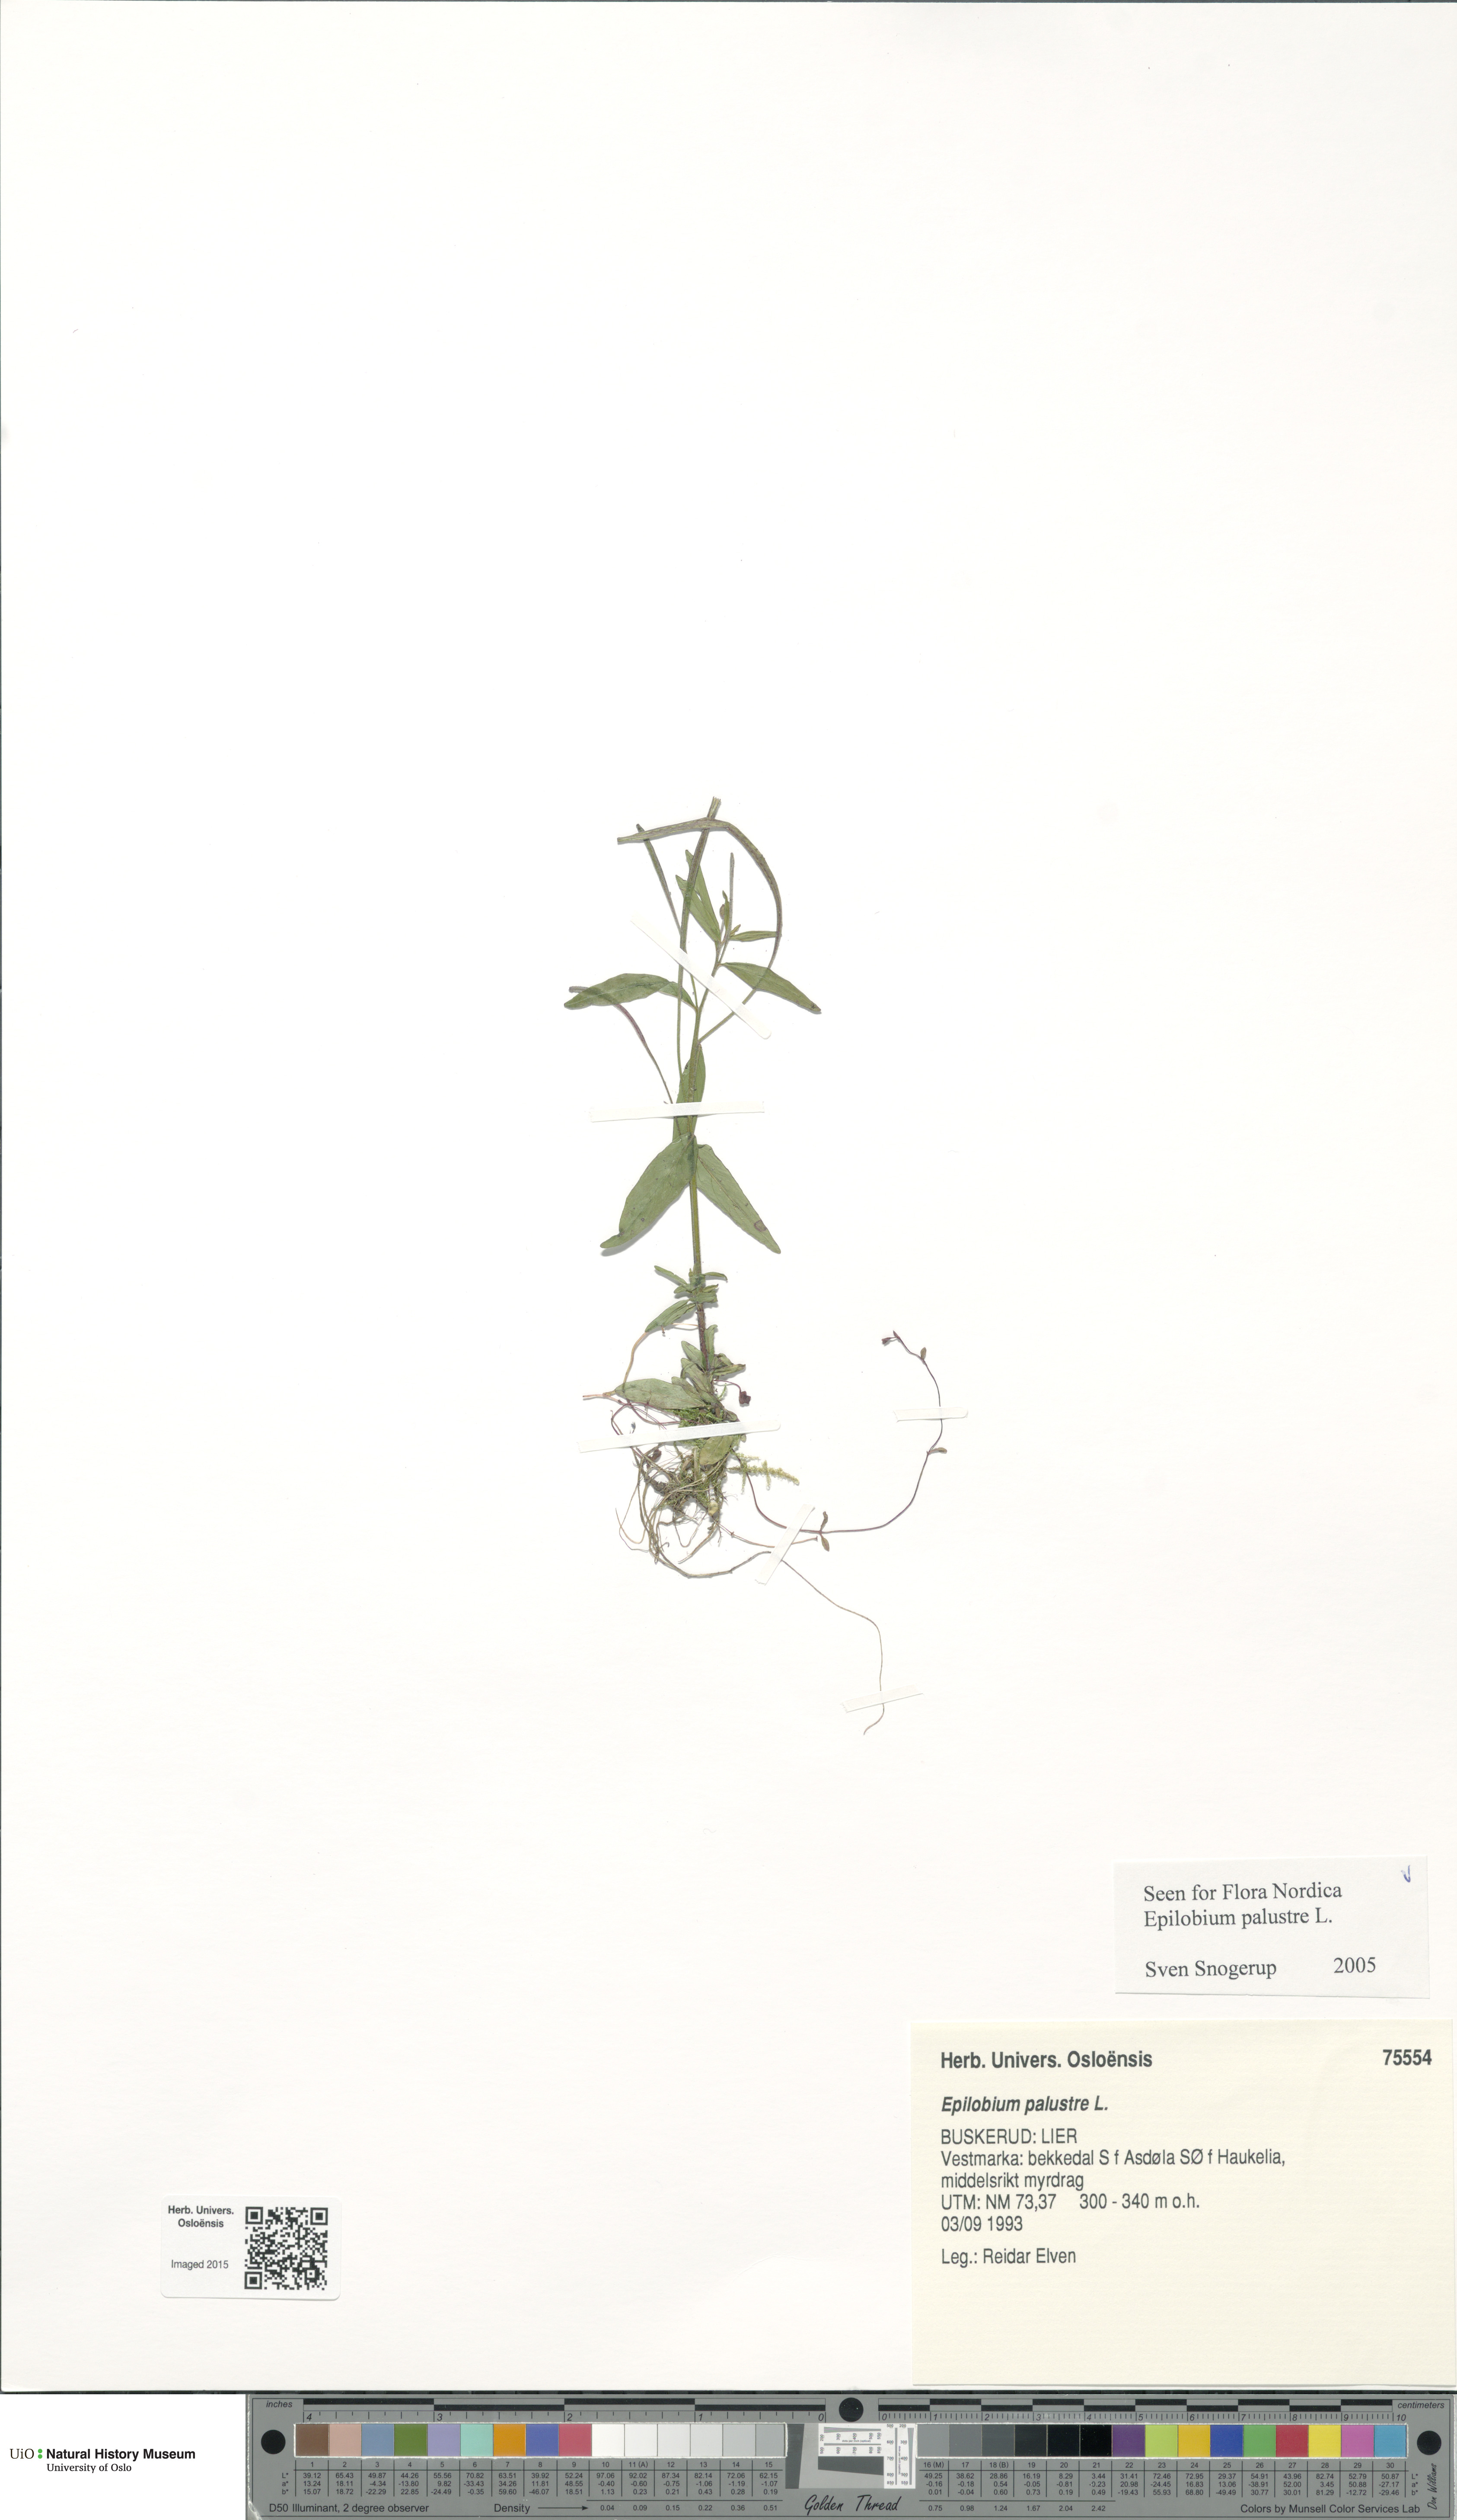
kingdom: Plantae
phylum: Tracheophyta
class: Magnoliopsida
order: Myrtales
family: Onagraceae
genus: Epilobium
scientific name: Epilobium palustre
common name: Marsh willowherb
